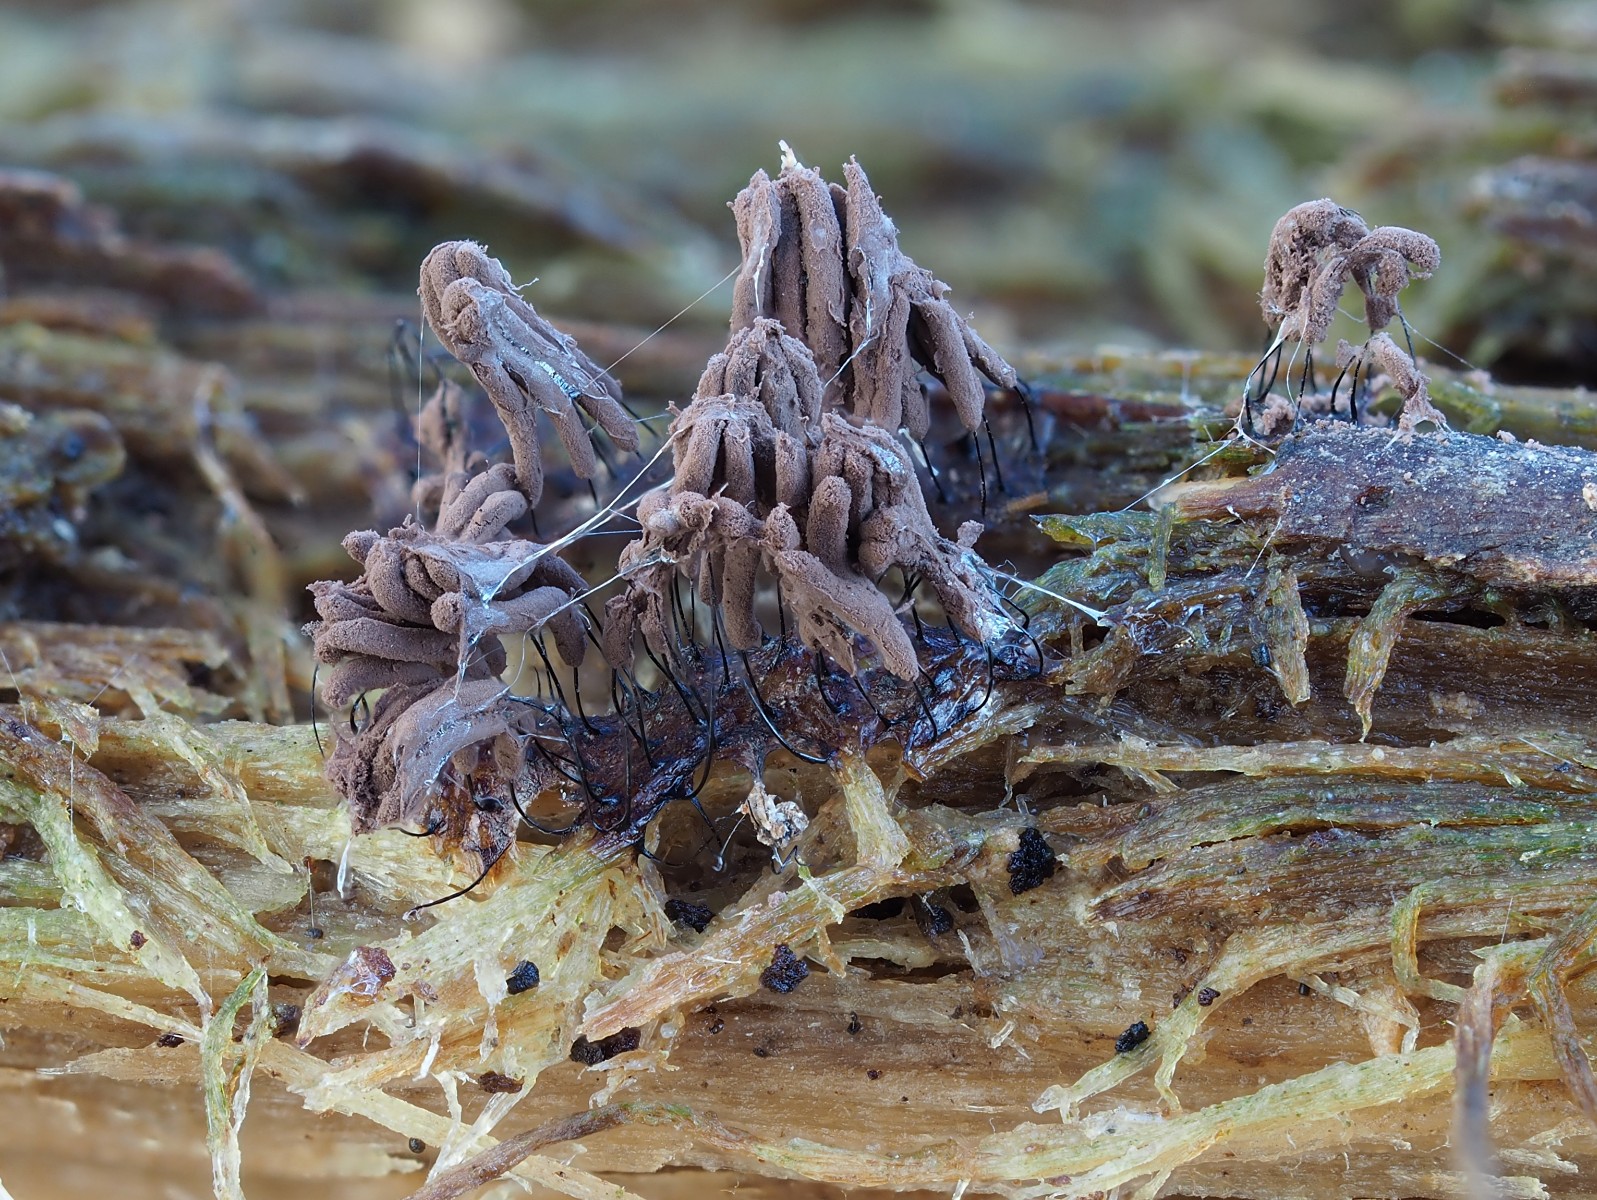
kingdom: Protozoa
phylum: Mycetozoa
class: Myxomycetes
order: Stemonitidales
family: Stemonitidaceae
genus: Stemonitopsis
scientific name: Stemonitopsis typhina
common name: skinnende støvkølle
